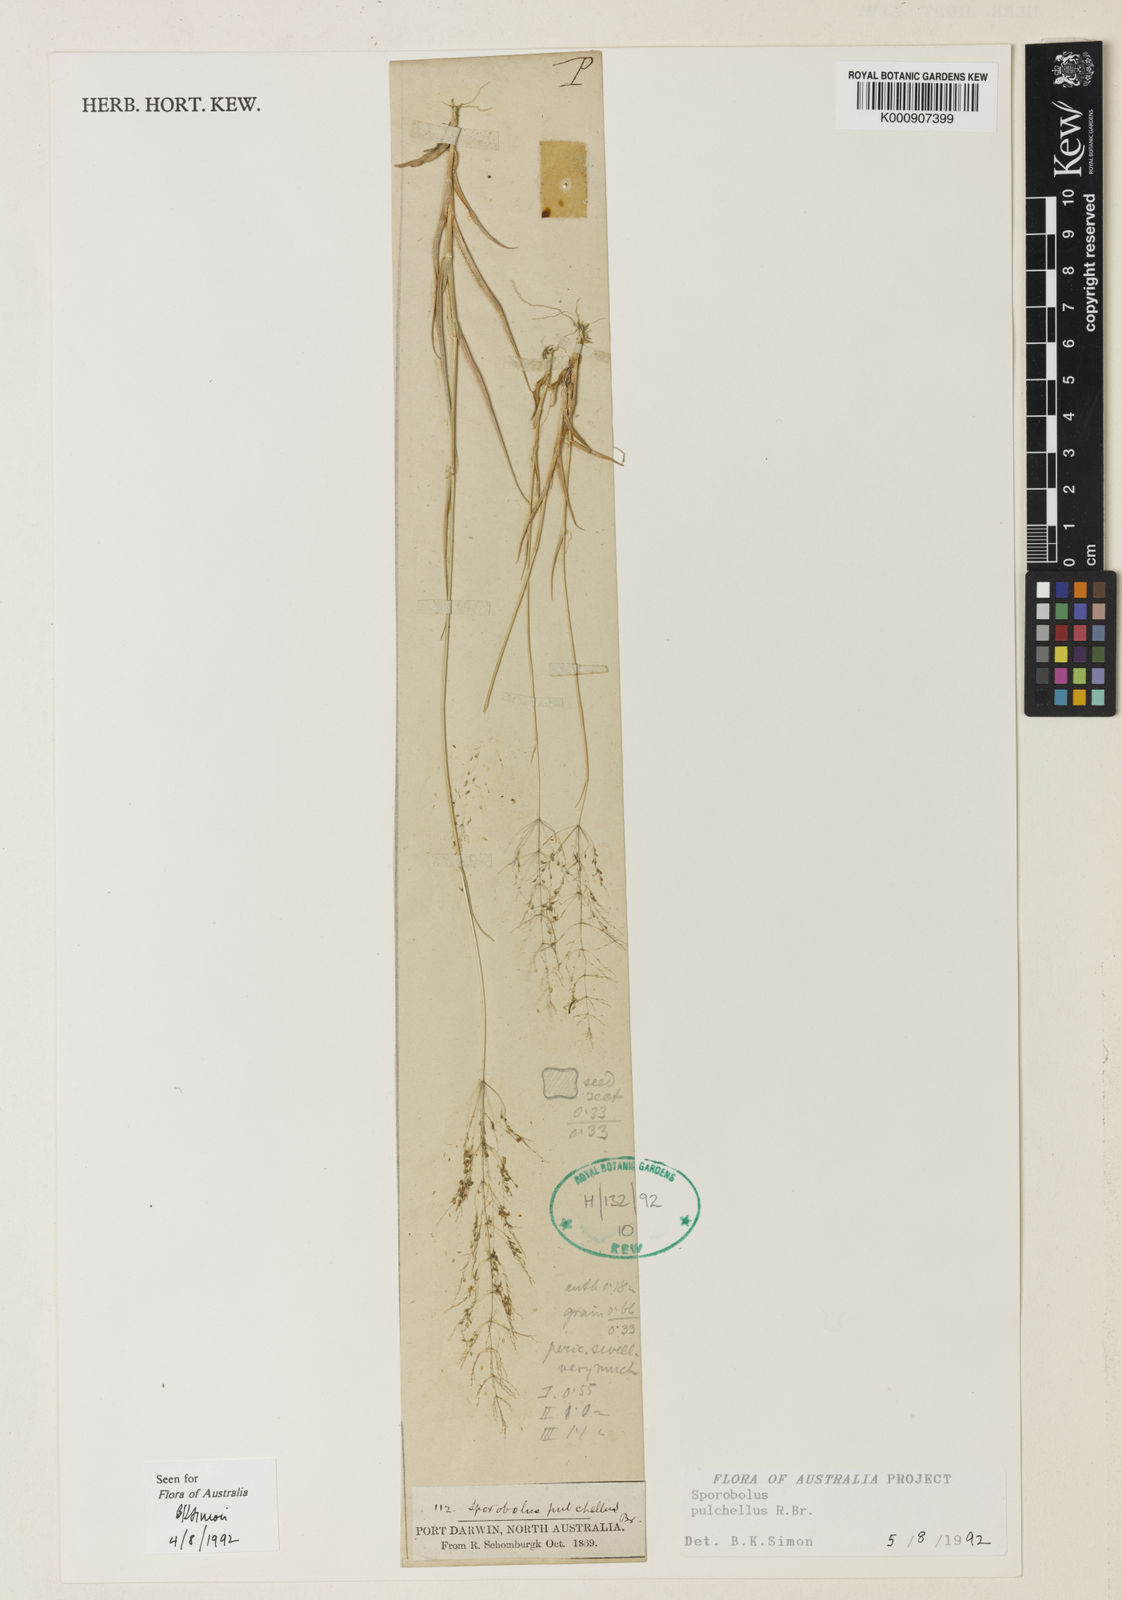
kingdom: Plantae
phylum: Tracheophyta
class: Liliopsida
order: Poales
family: Poaceae
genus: Sporobolus
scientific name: Sporobolus pulchellus
